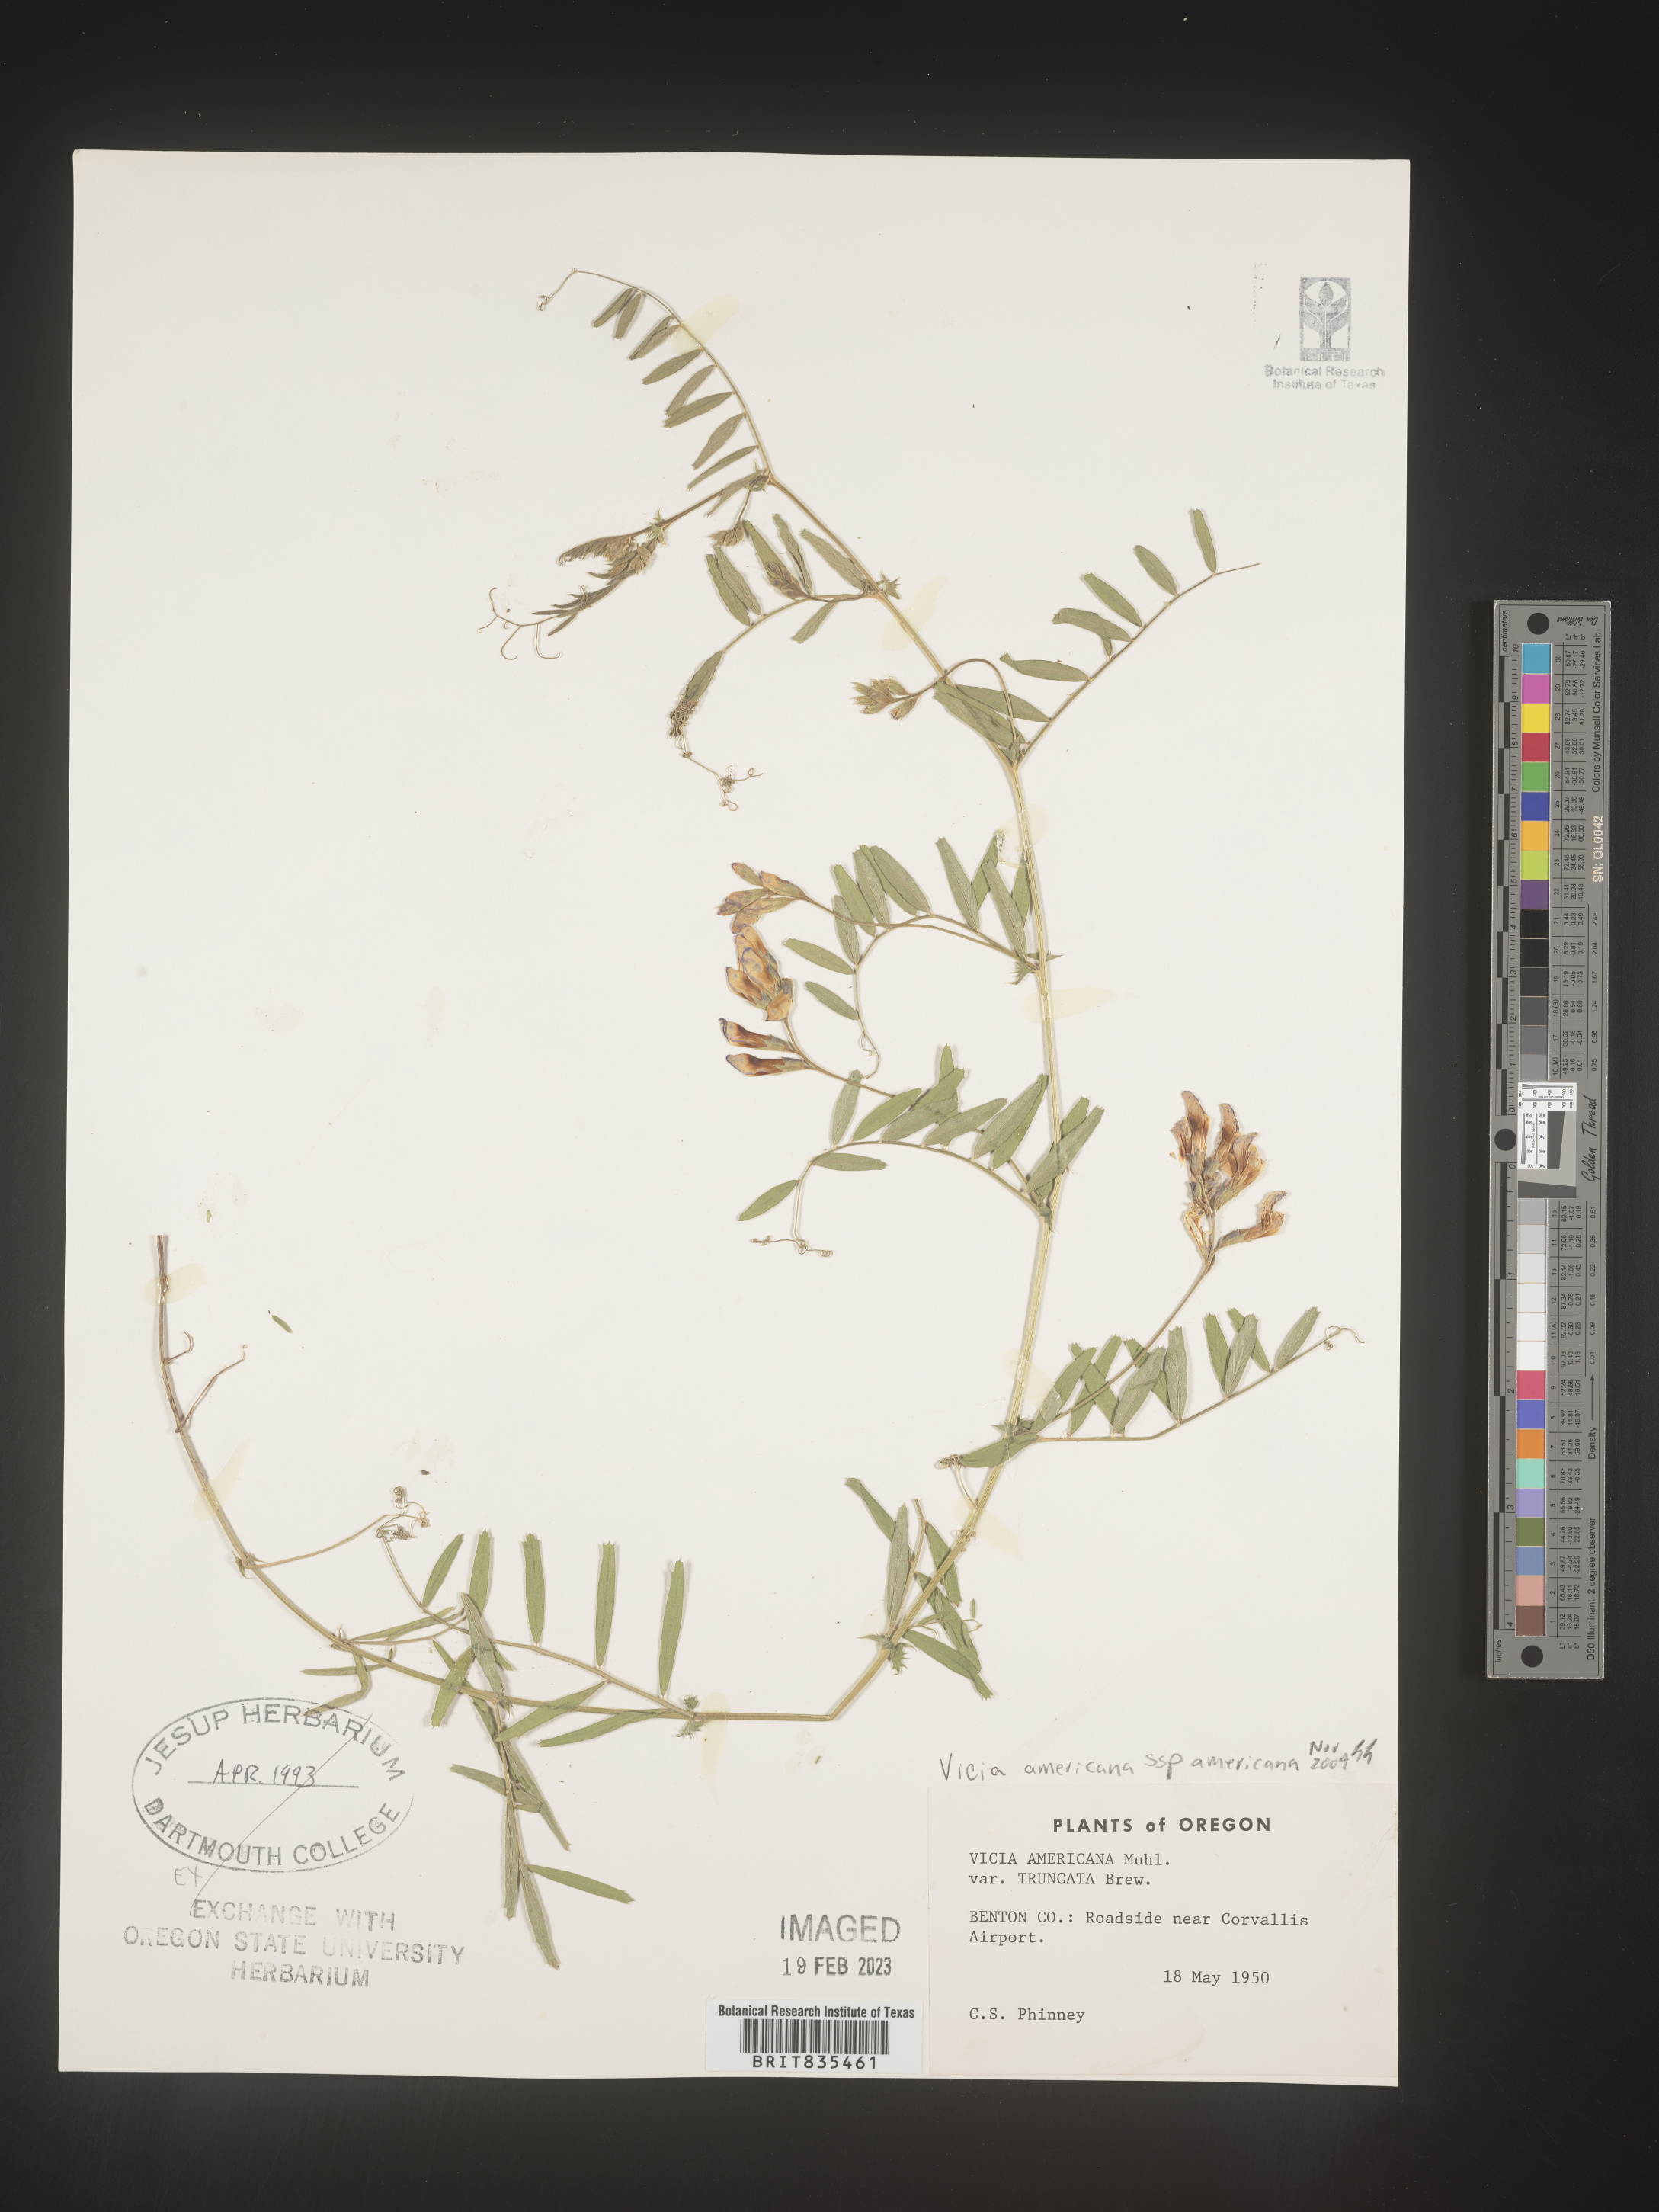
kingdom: Plantae
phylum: Tracheophyta
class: Magnoliopsida
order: Fabales
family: Fabaceae
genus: Vicia
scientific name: Vicia americana
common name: American vetch
